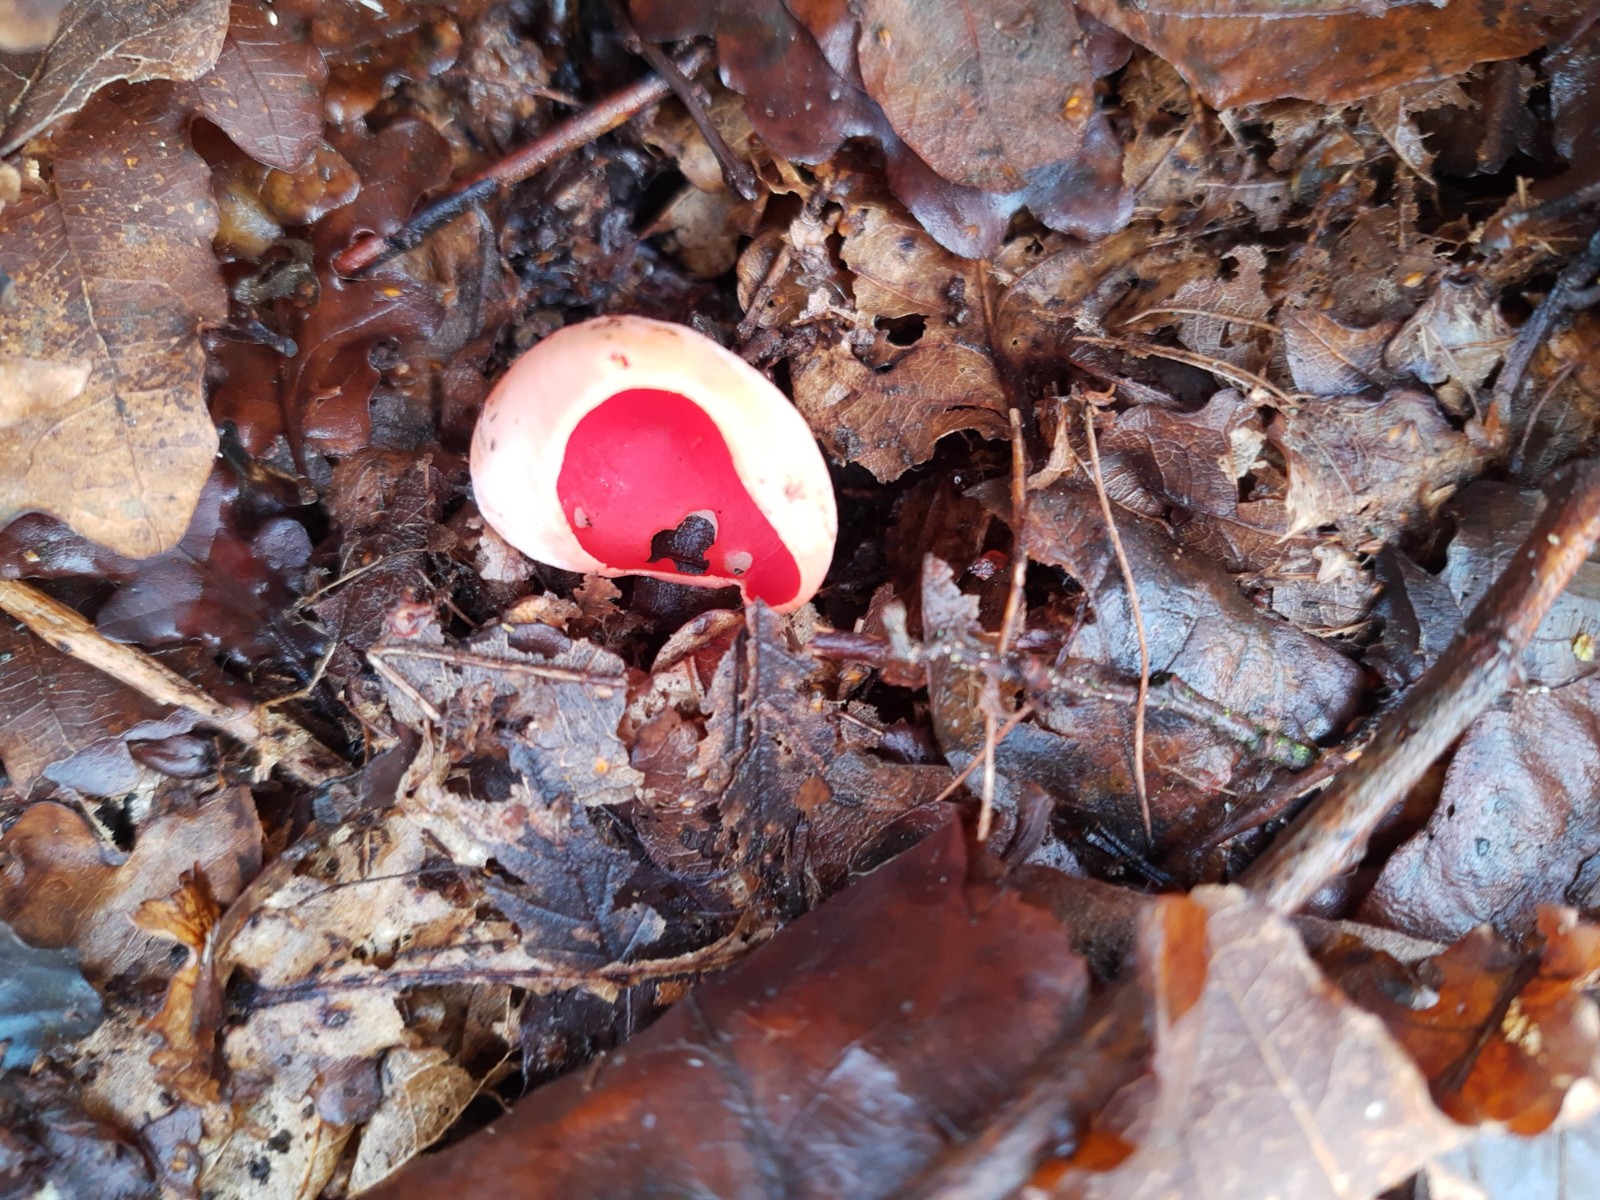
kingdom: Fungi
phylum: Ascomycota
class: Pezizomycetes
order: Pezizales
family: Sarcoscyphaceae
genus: Sarcoscypha
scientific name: Sarcoscypha austriaca
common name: krølhåret pragtbæger
